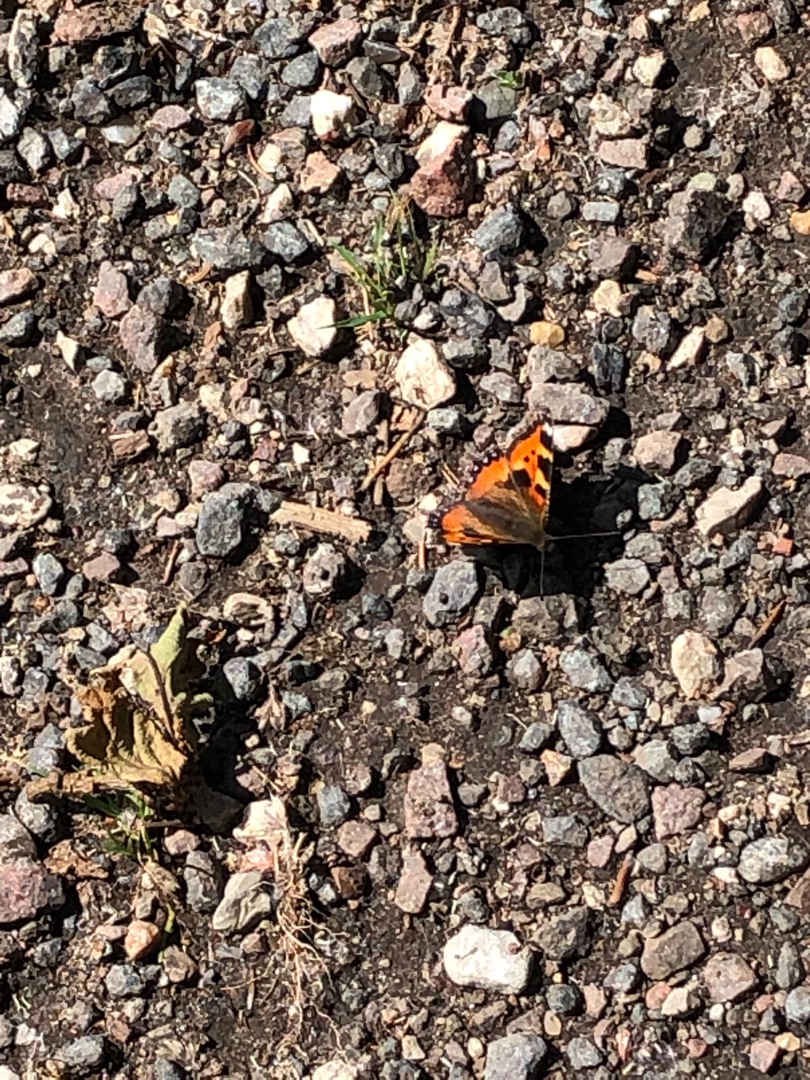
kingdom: Animalia
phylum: Arthropoda
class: Insecta
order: Lepidoptera
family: Nymphalidae
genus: Aglais
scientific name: Aglais urticae
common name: Nældens takvinge
